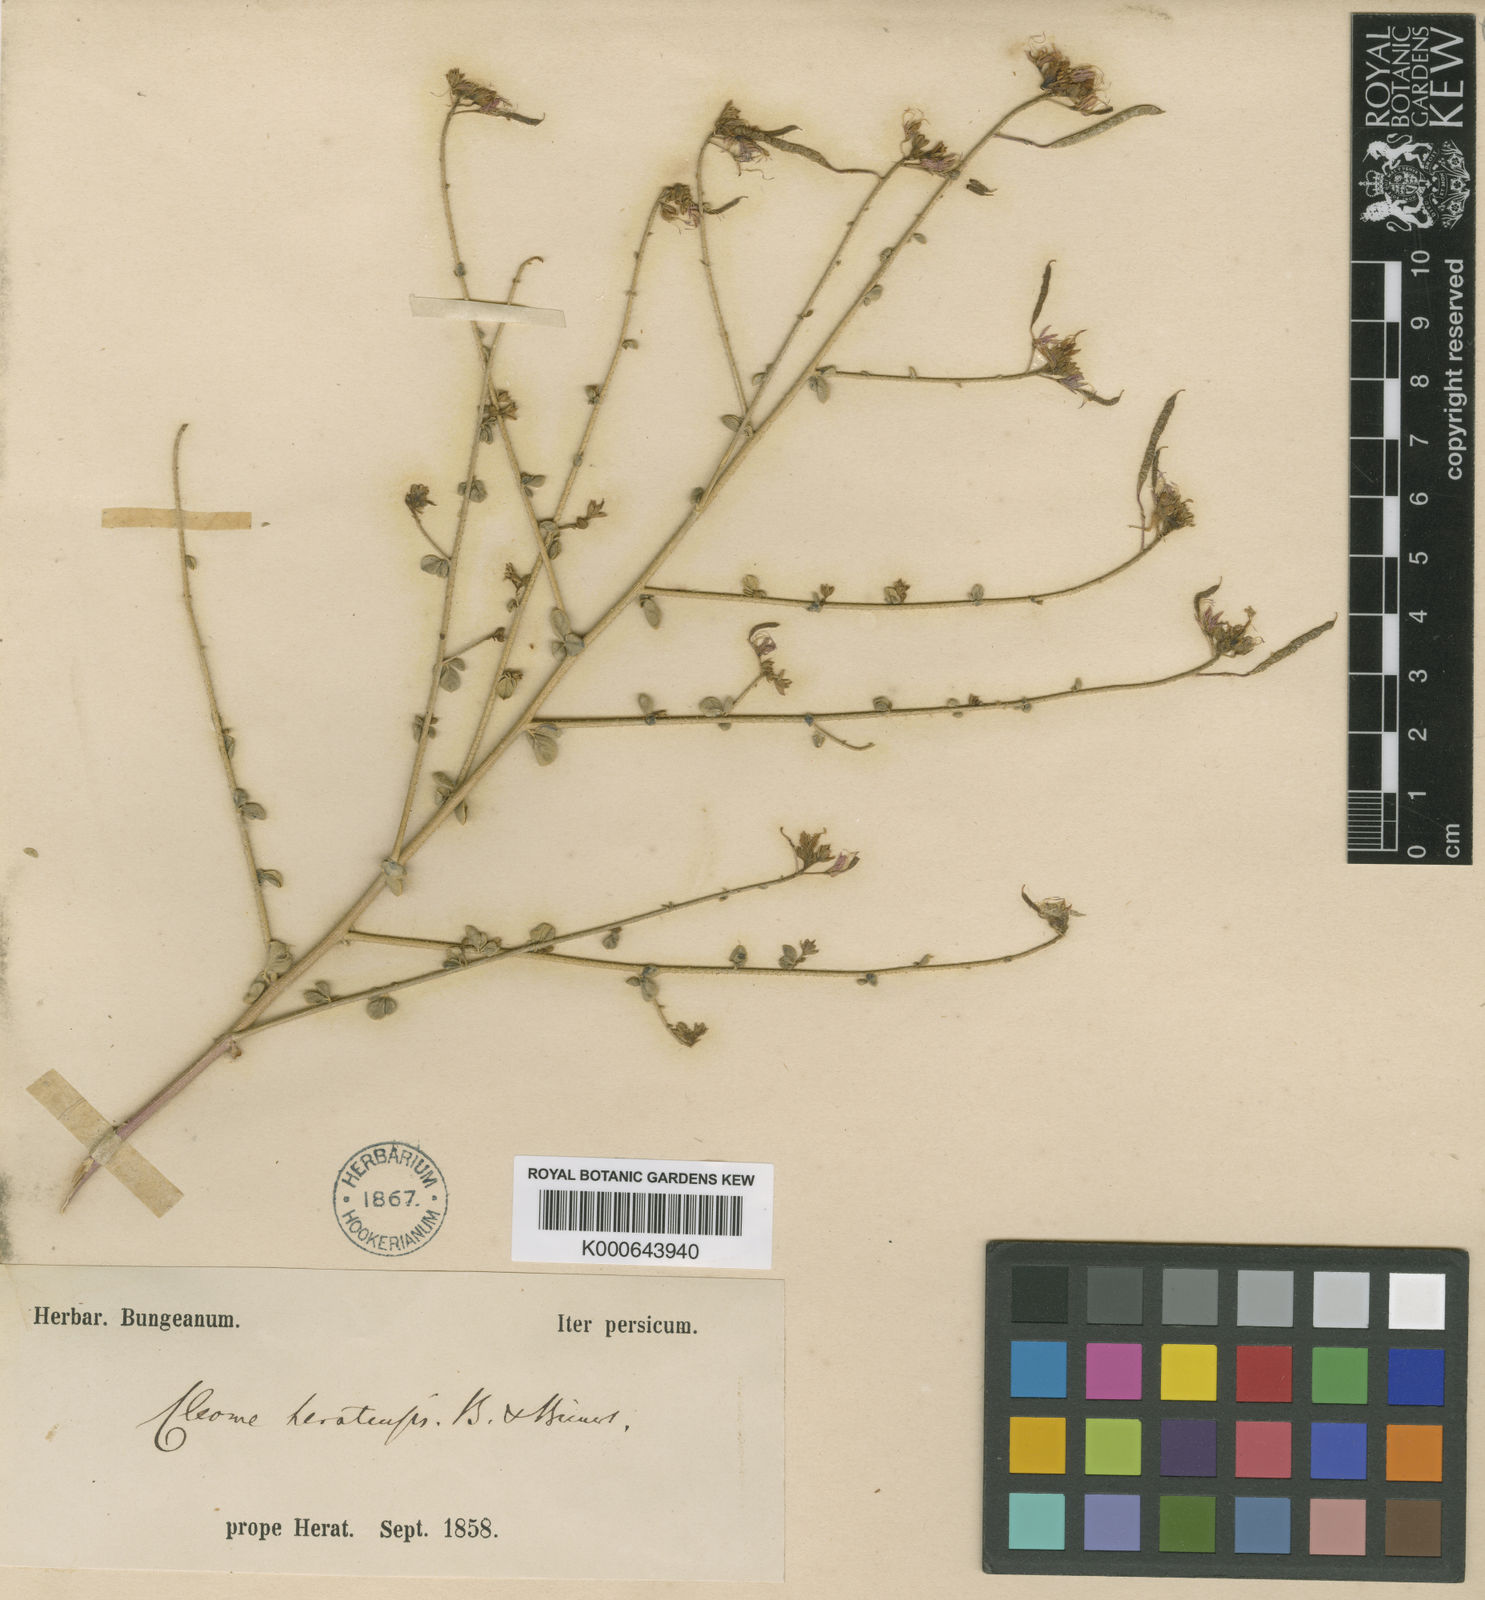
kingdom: Plantae
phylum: Tracheophyta
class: Magnoliopsida
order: Brassicales
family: Cleomaceae
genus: Cleome
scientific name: Cleome heratensis
